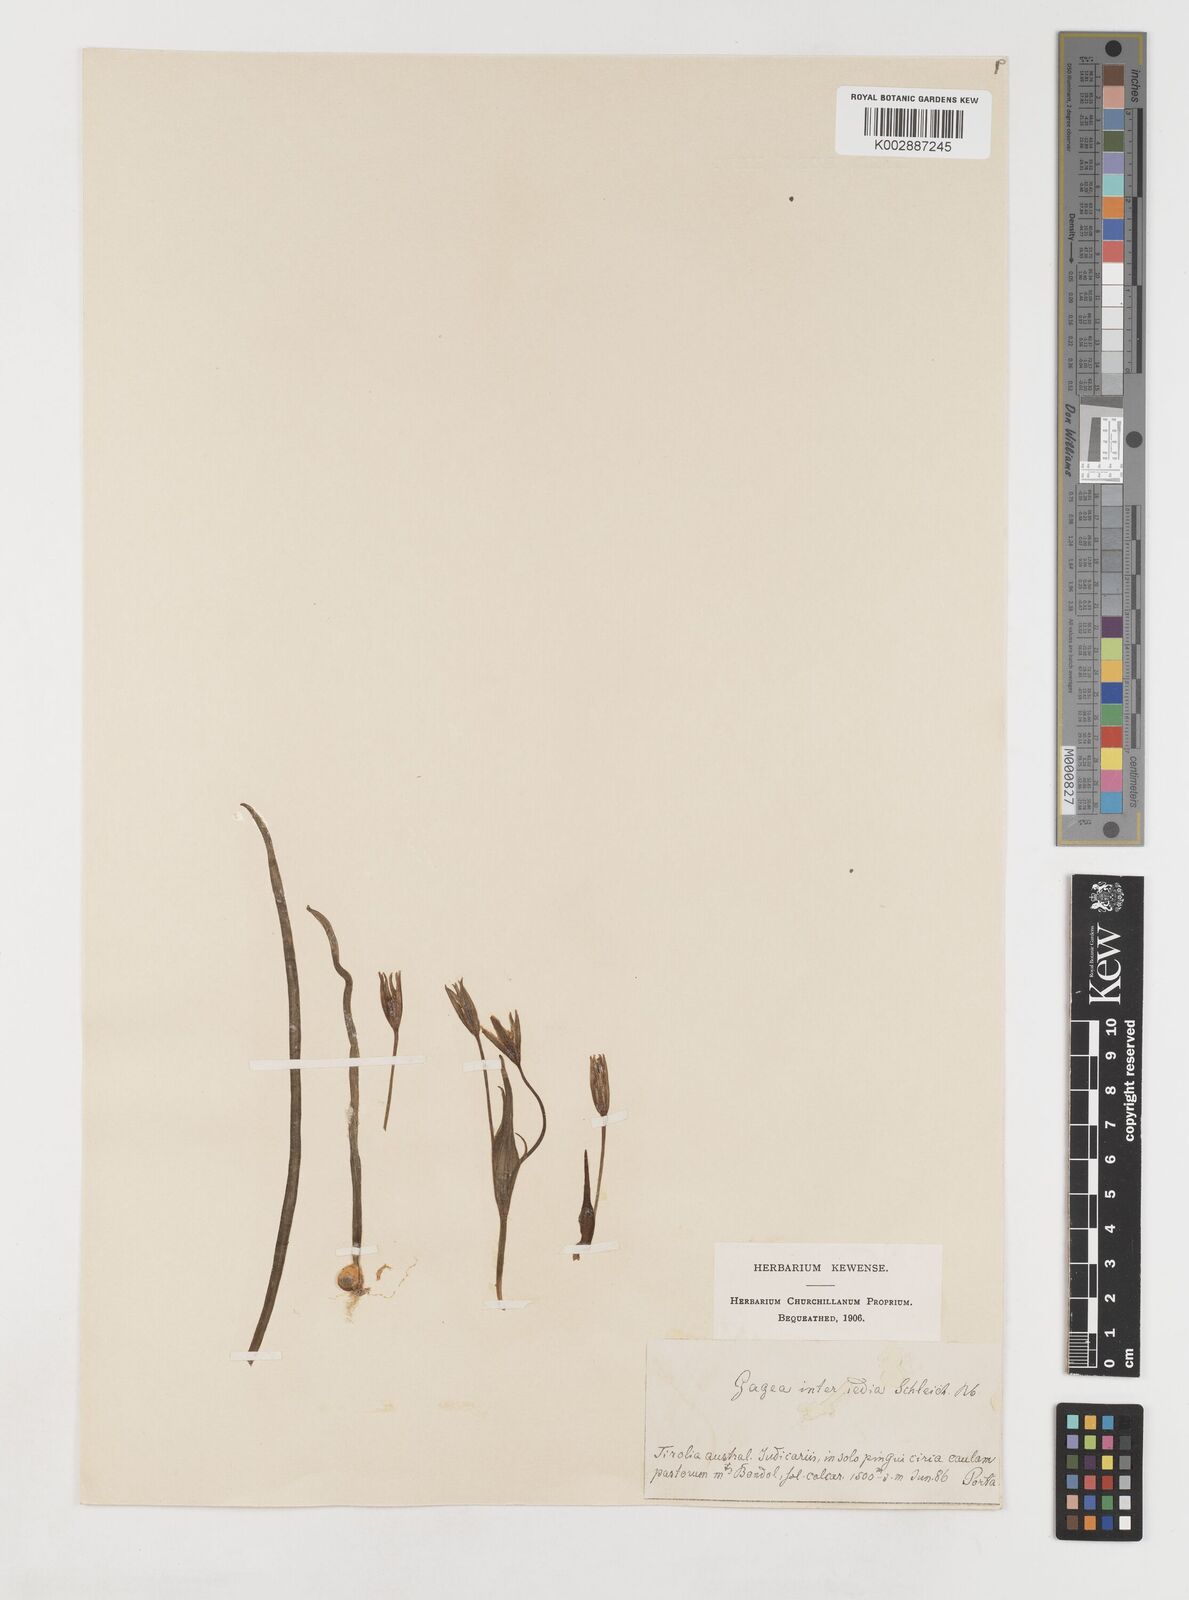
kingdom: Plantae
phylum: Tracheophyta
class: Liliopsida
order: Liliales
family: Liliaceae
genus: Gagea
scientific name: Gagea bohemica
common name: Early star-of-bethlehem
